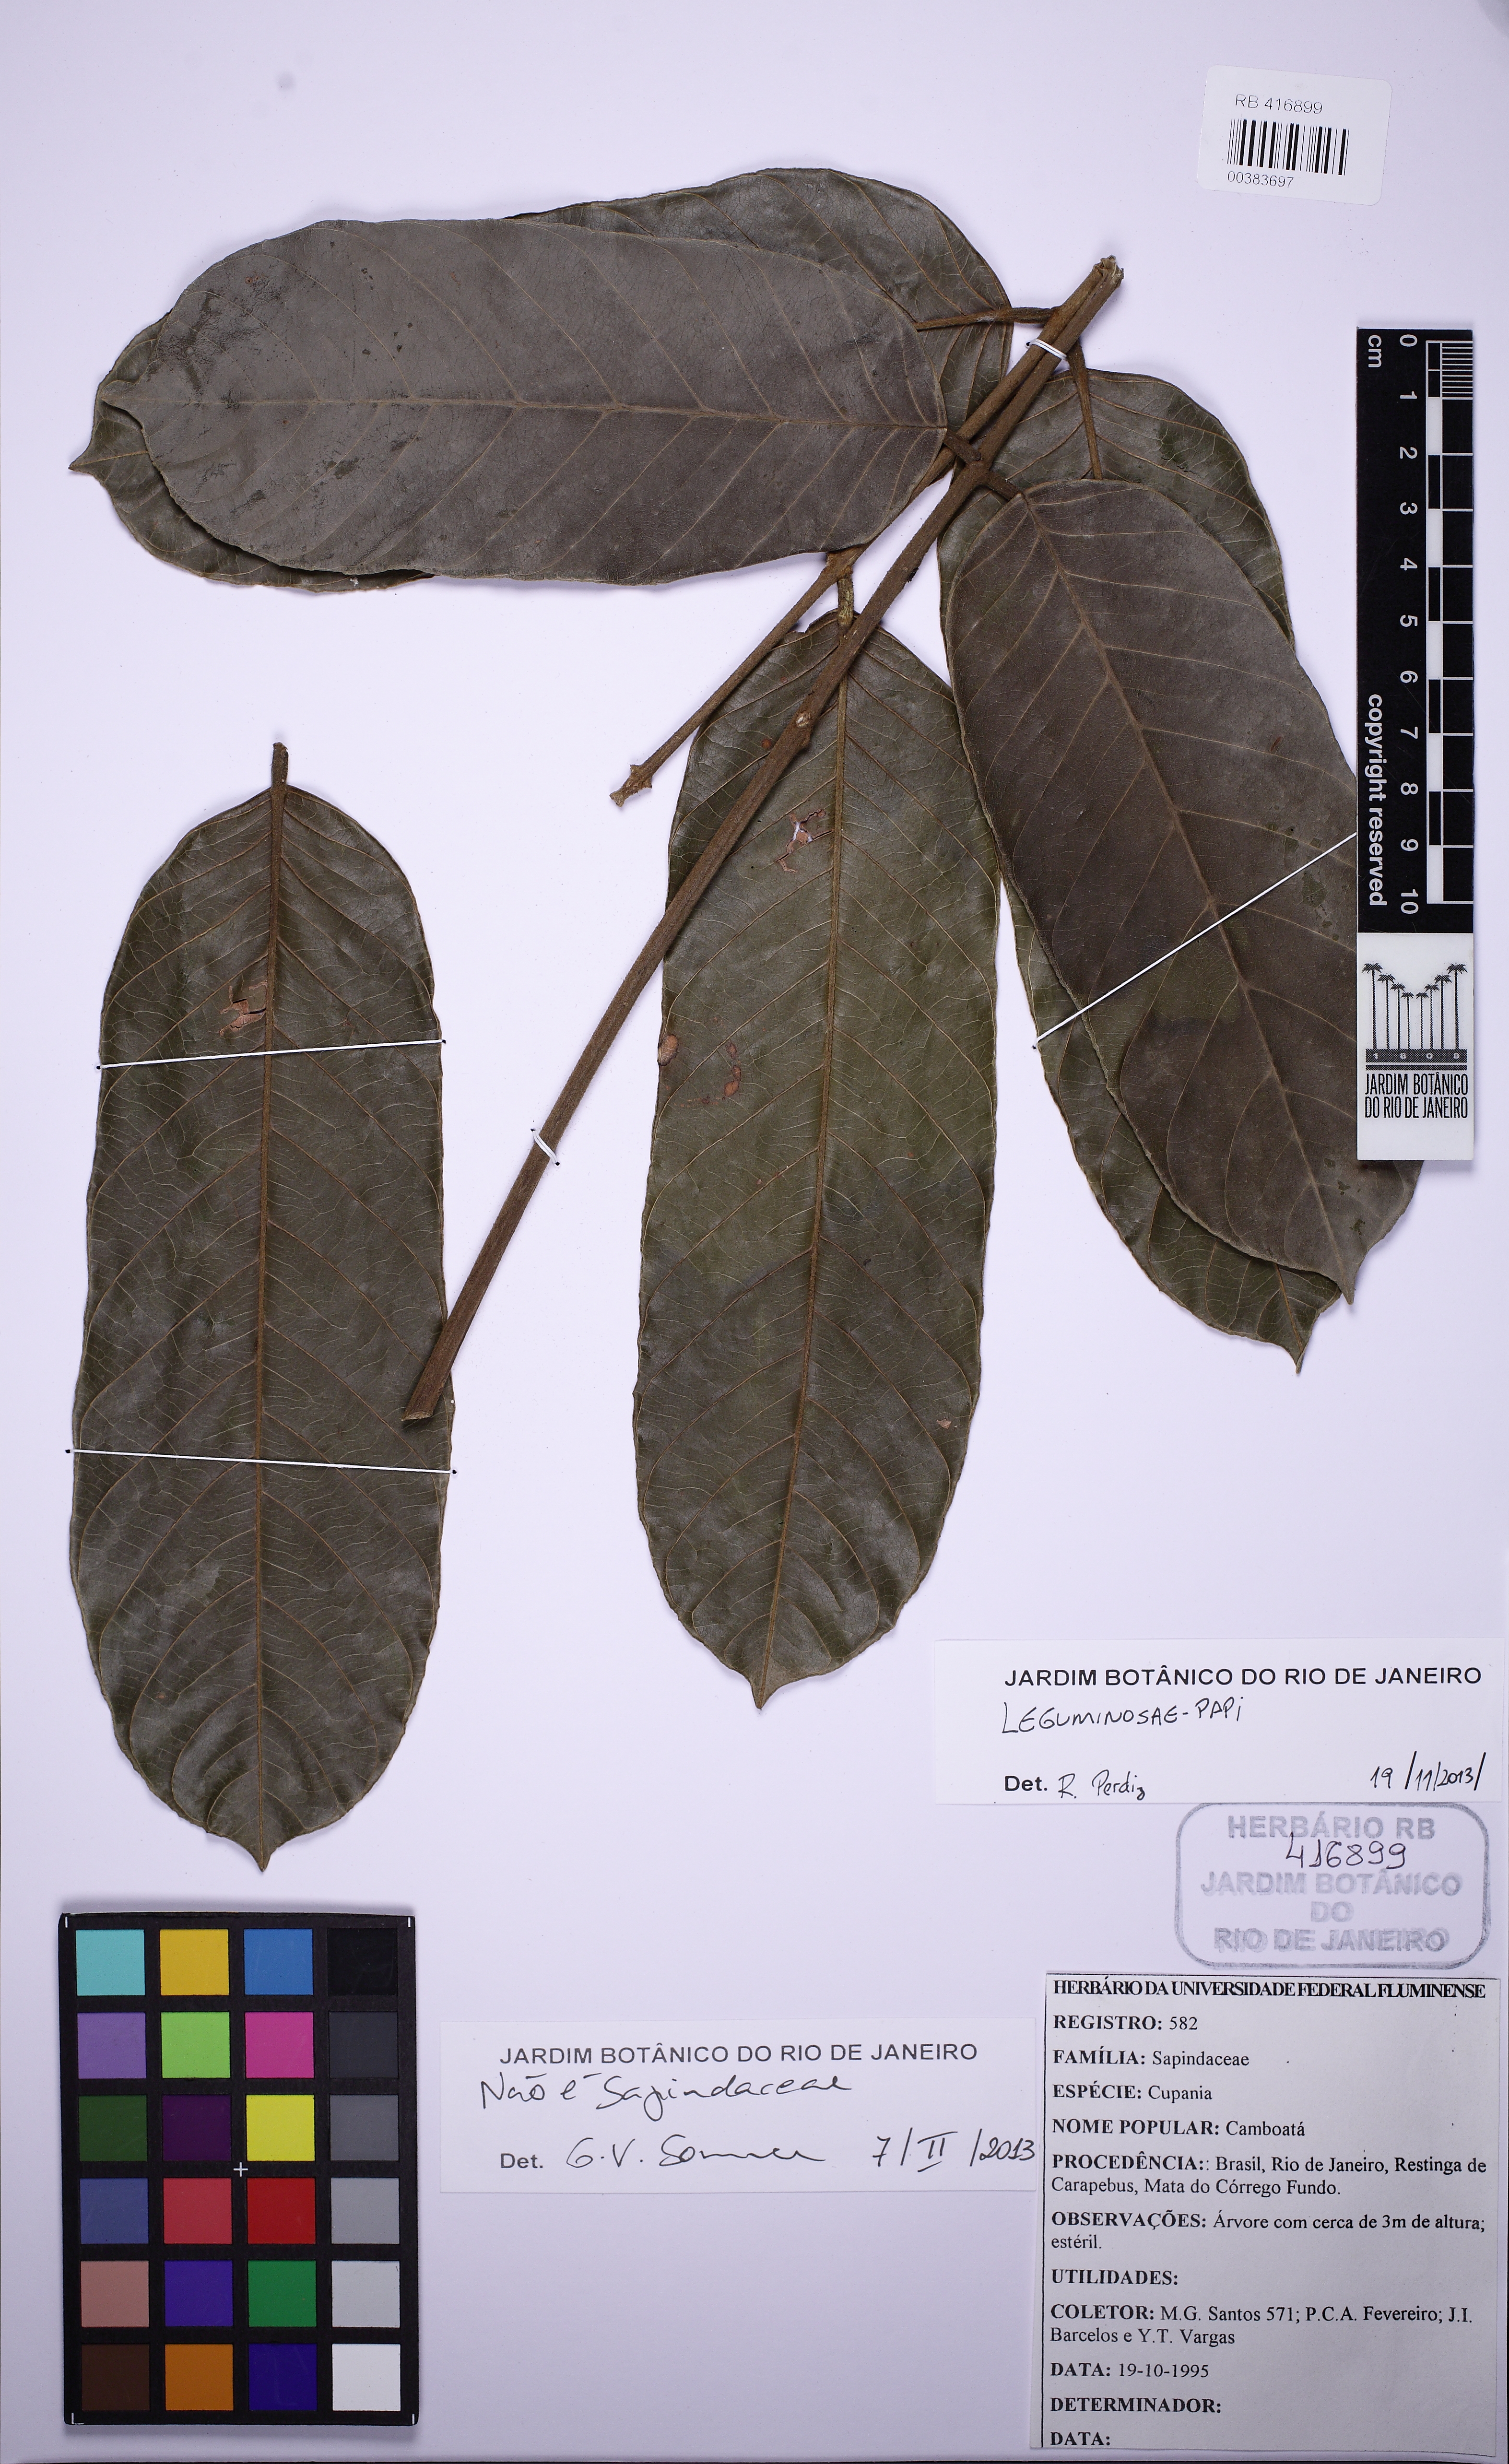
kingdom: Plantae
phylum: Tracheophyta
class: Magnoliopsida
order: Fabales
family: Fabaceae
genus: Ormosia
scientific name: Ormosia arborea
